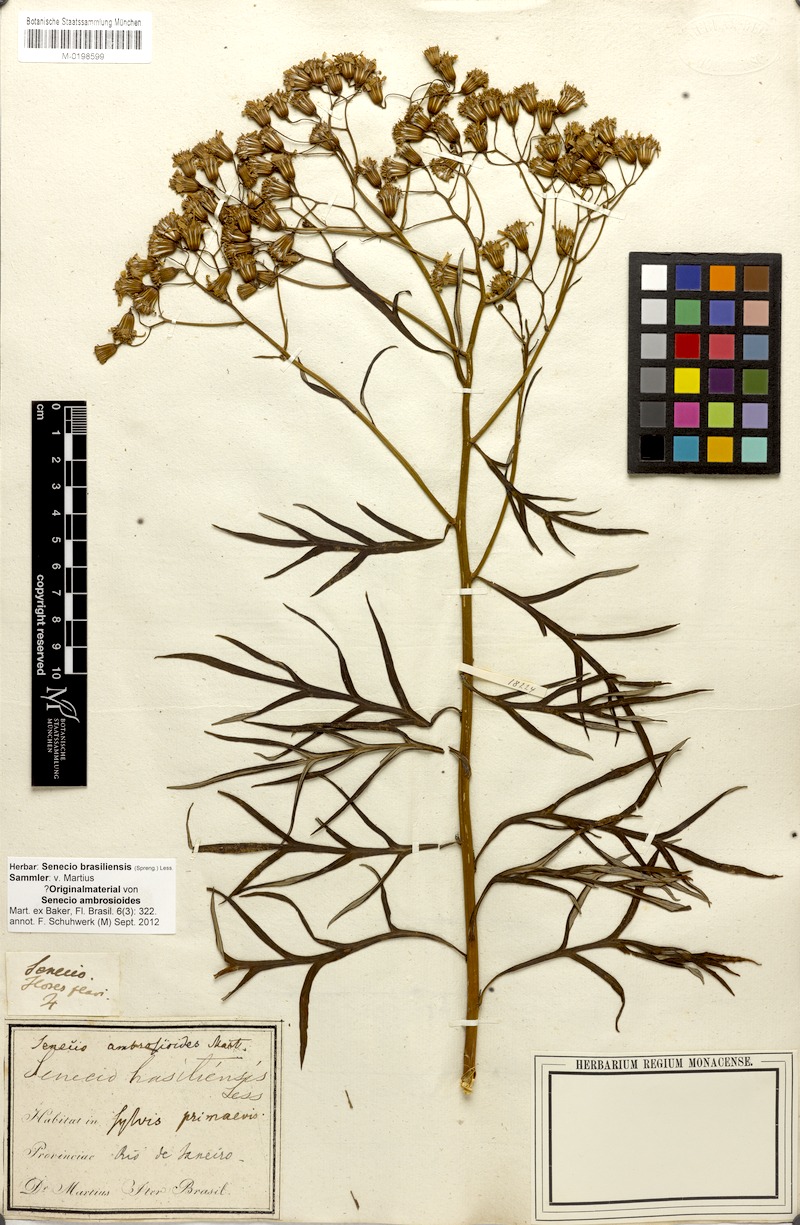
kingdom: Plantae
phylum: Tracheophyta
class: Magnoliopsida
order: Asterales
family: Asteraceae
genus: Senecio
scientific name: Senecio brasiliensis
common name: Hemp-leaf ragwort
